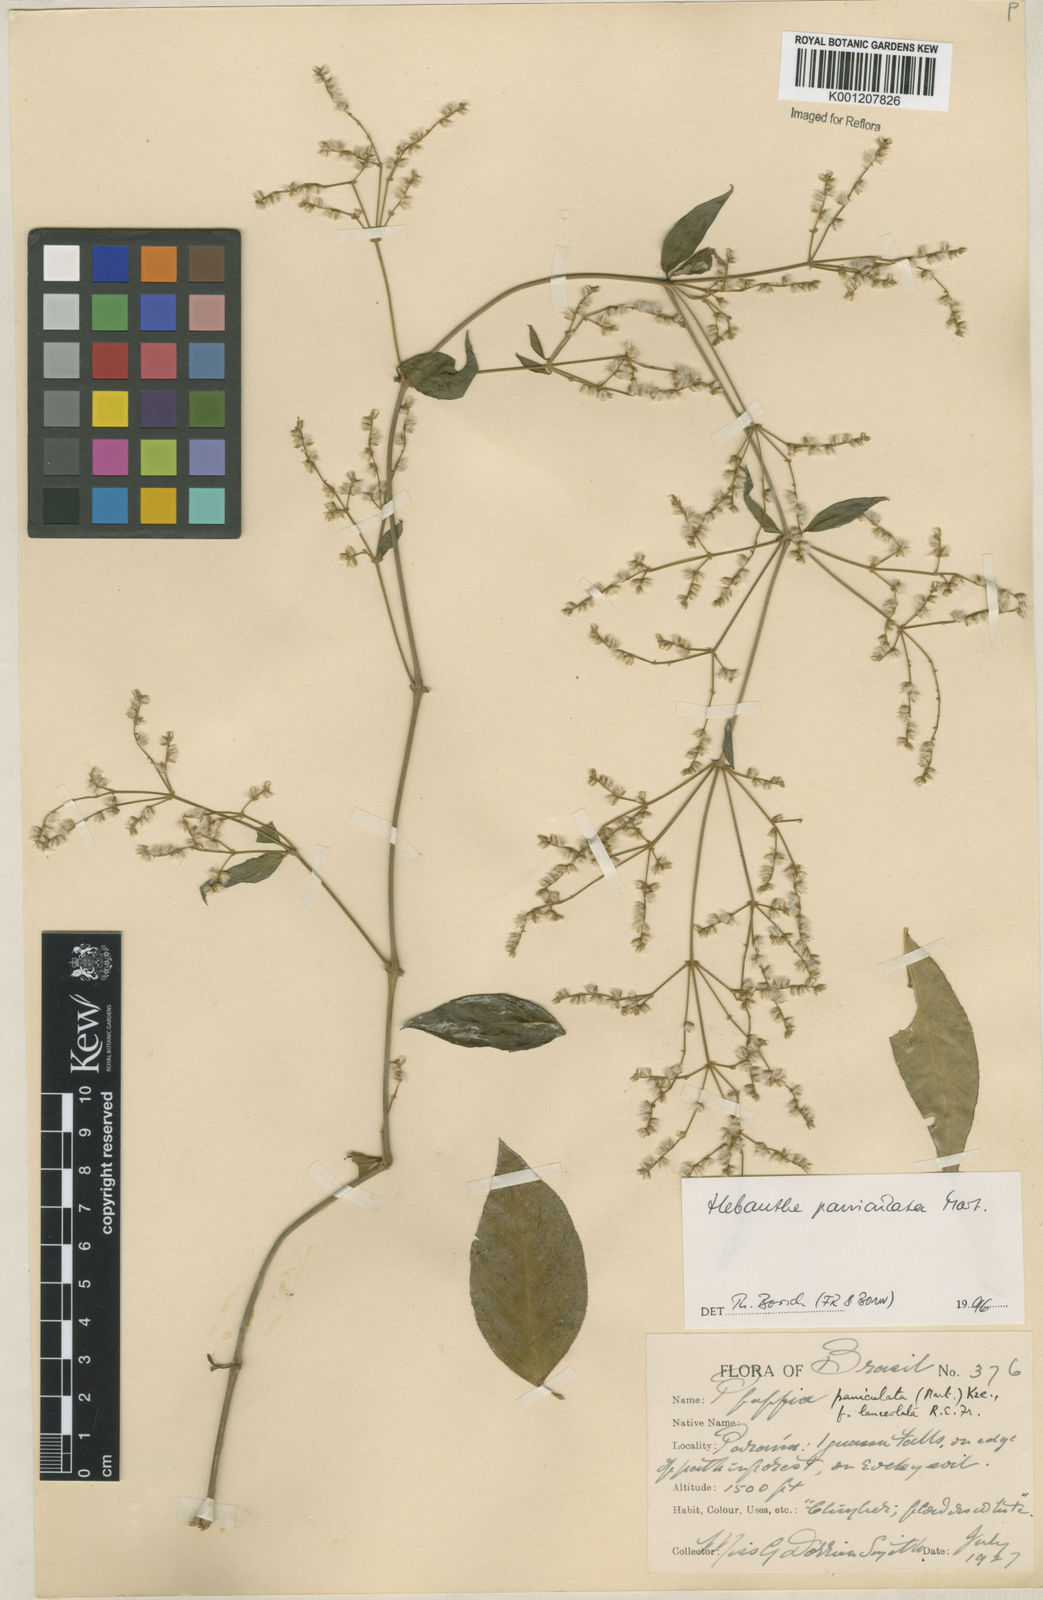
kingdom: Plantae
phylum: Tracheophyta
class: Magnoliopsida
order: Caryophyllales
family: Amaranthaceae
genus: Hebanthe
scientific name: Hebanthe erianthos
